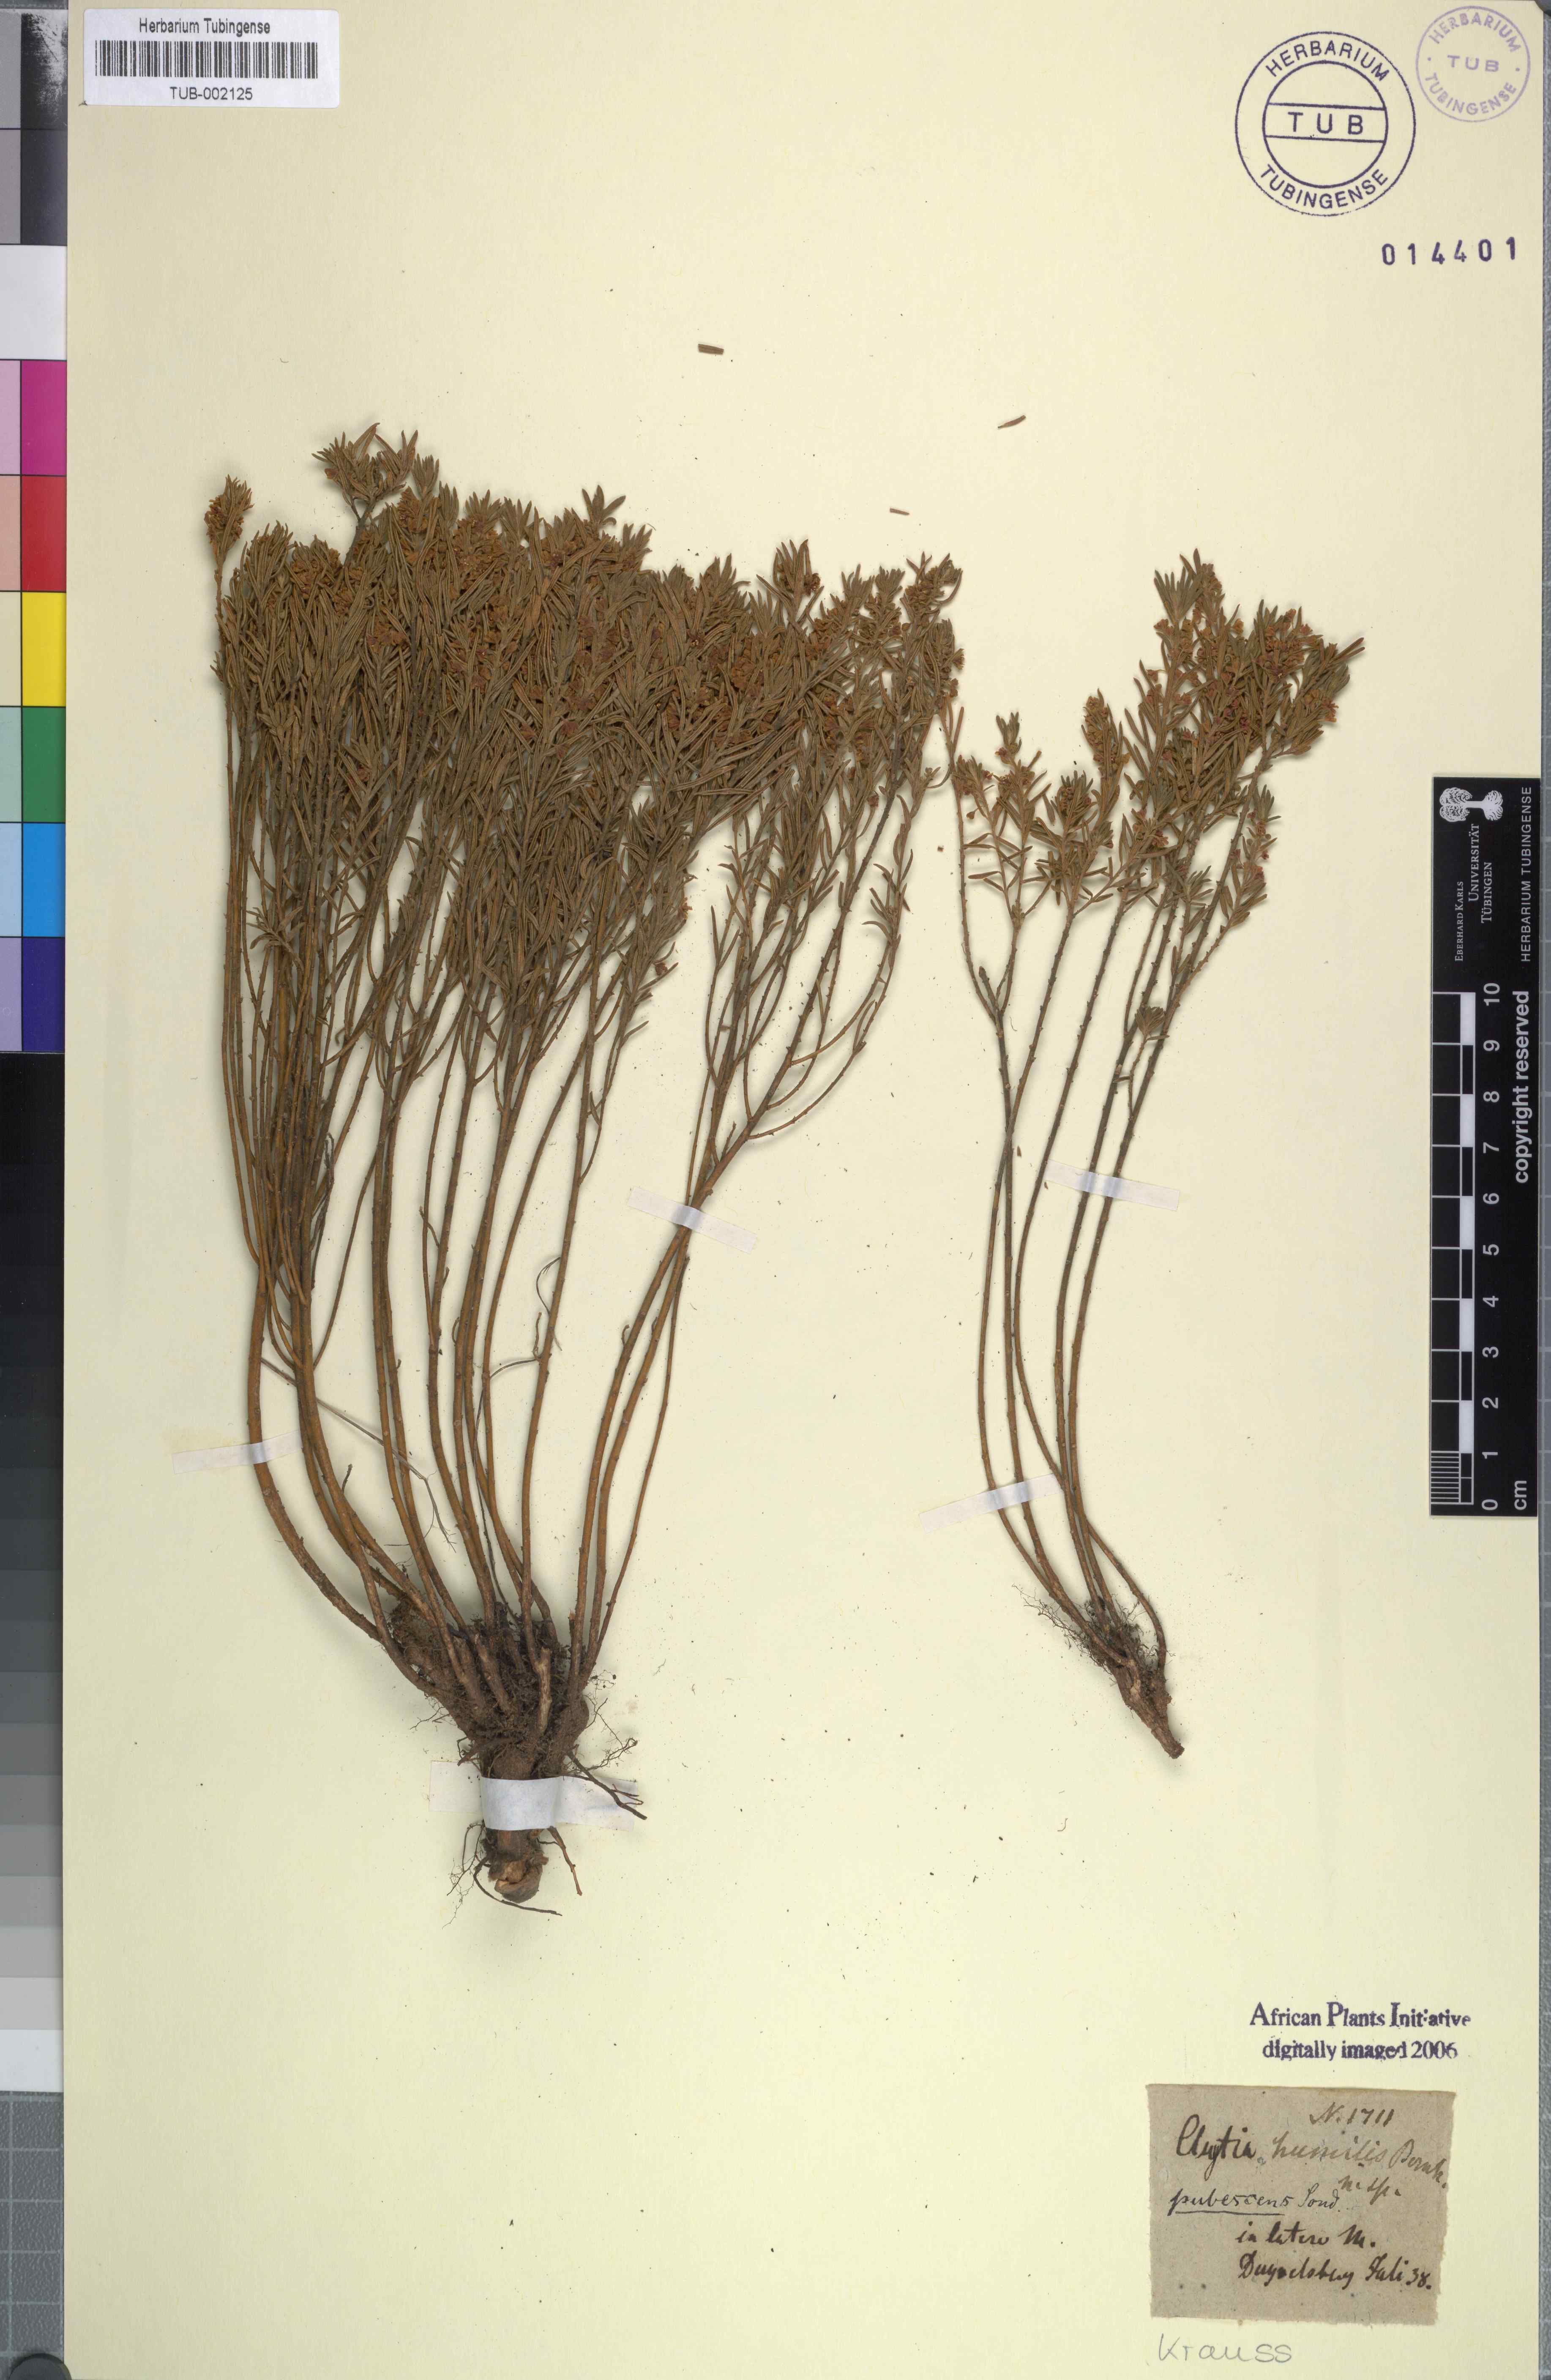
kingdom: Plantae
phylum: Tracheophyta
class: Magnoliopsida
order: Malpighiales
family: Peraceae
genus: Clutia
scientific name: Clutia pubescens
